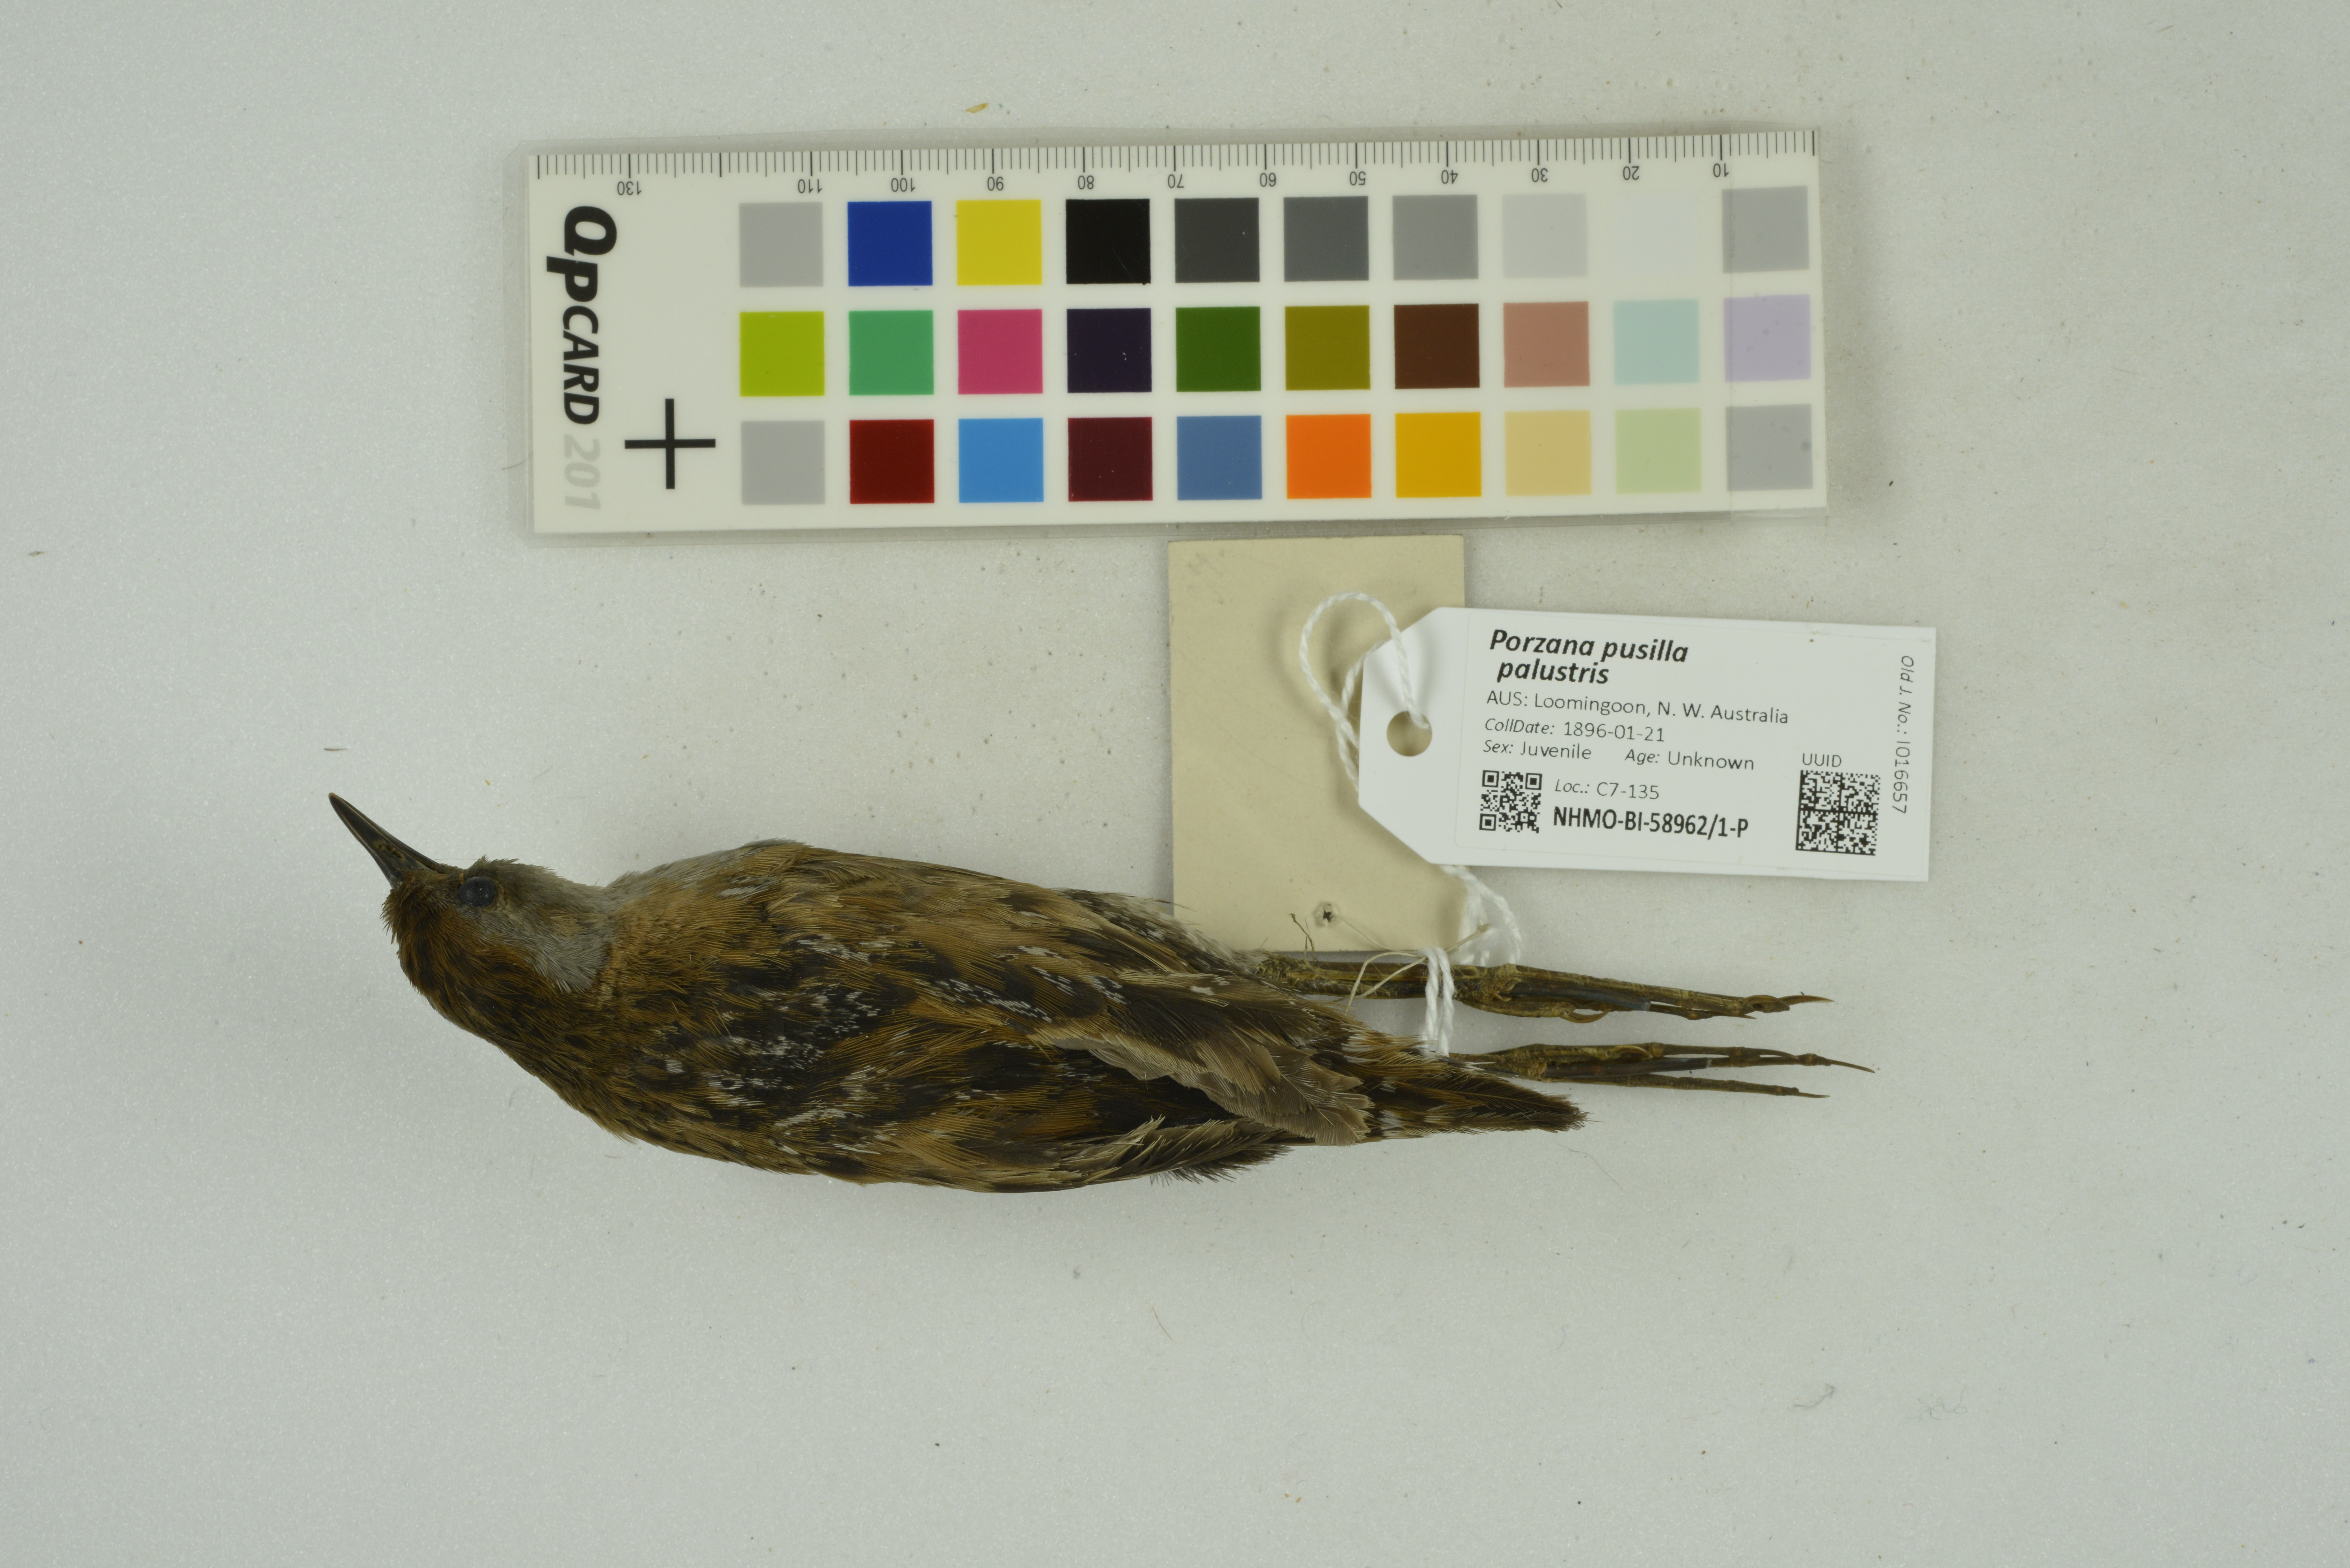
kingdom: Animalia
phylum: Chordata
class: Aves
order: Gruiformes
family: Rallidae
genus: Porzana
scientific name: Porzana pusilla
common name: Baillon's crake
